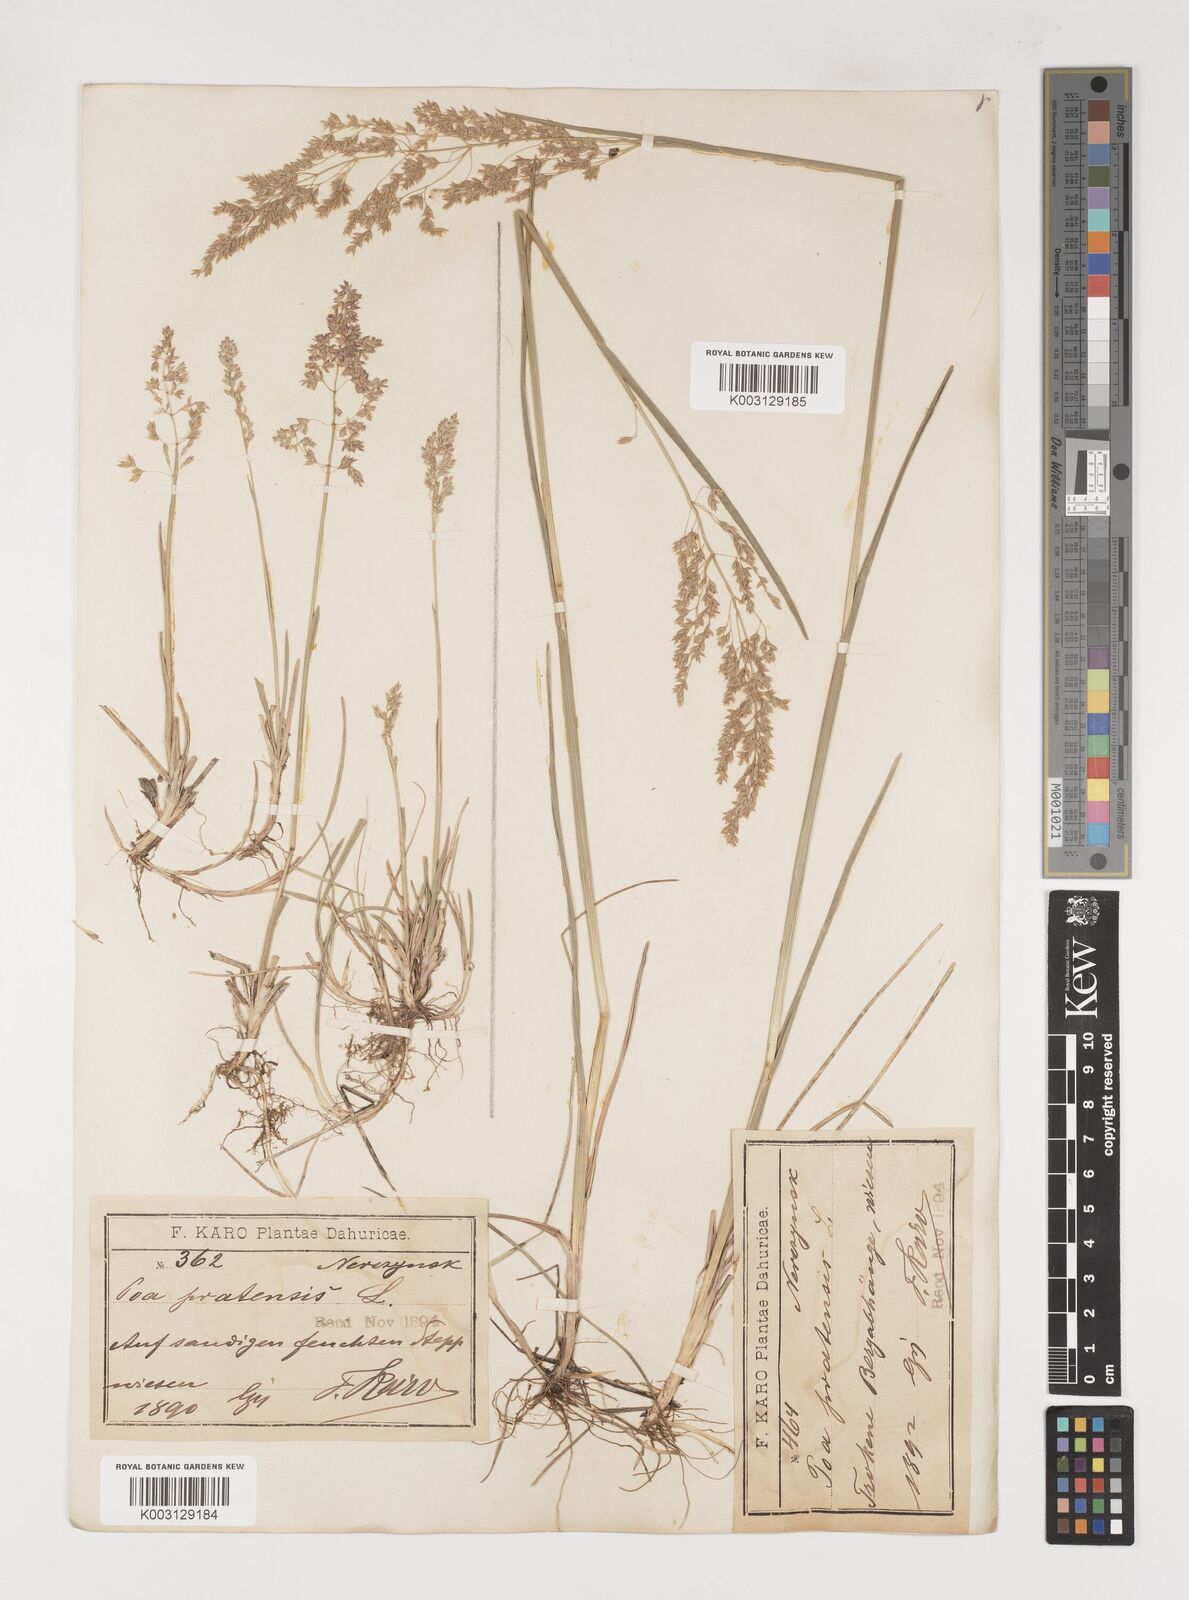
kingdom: Plantae
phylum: Tracheophyta
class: Liliopsida
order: Poales
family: Poaceae
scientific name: Poaceae
